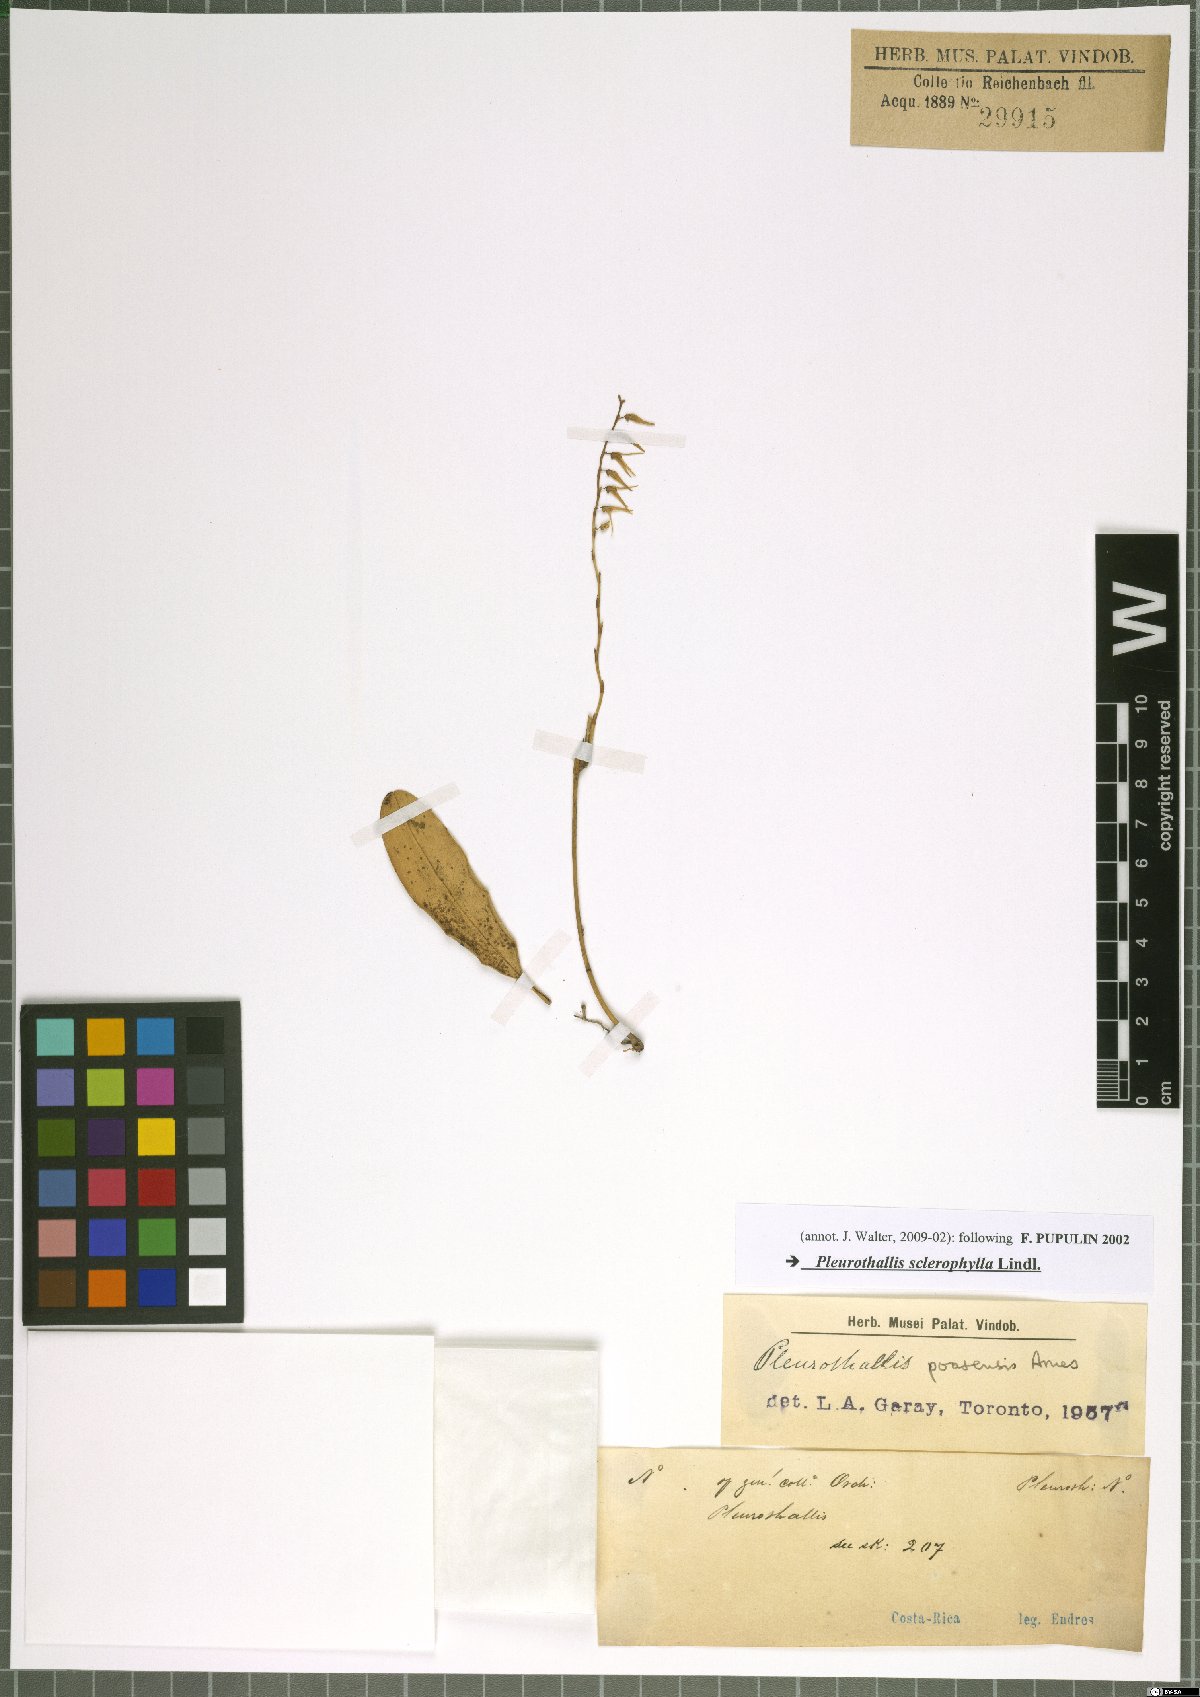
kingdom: Plantae
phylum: Tracheophyta
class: Liliopsida
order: Asparagales
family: Orchidaceae
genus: Stelis
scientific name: Stelis sclerophylla
